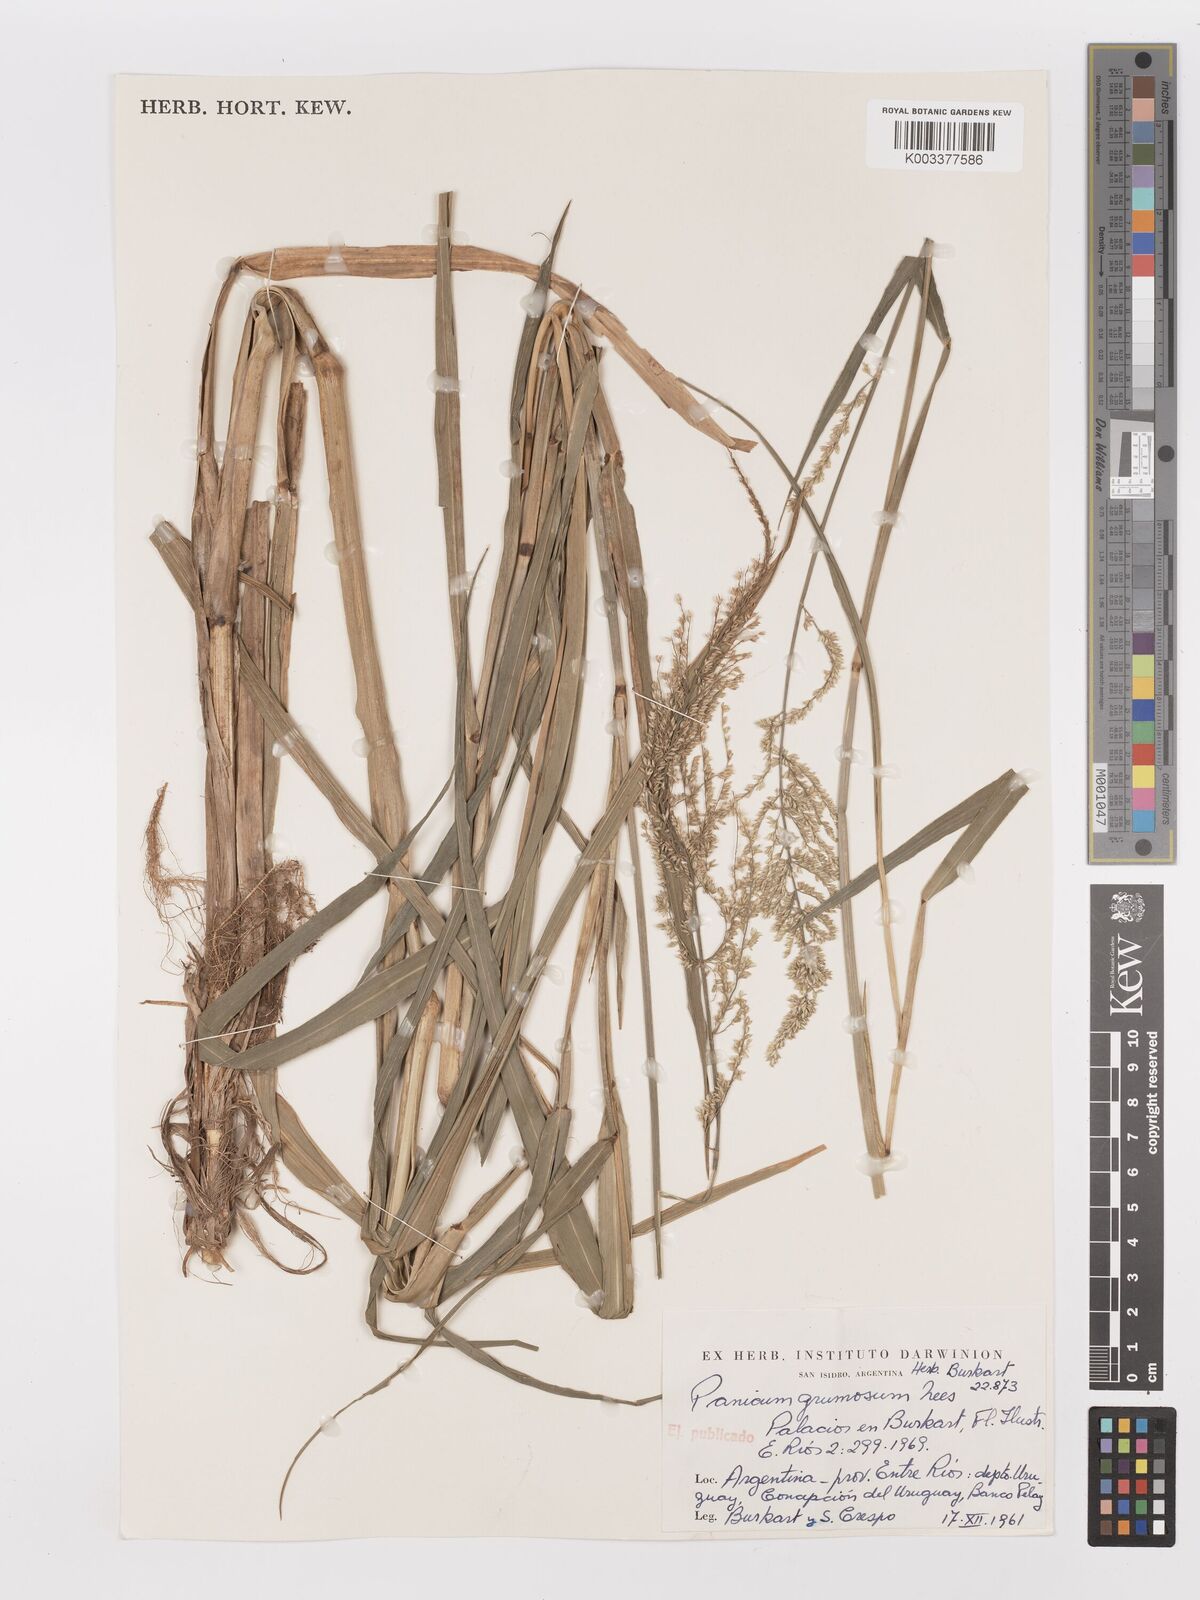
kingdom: Plantae
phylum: Tracheophyta
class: Liliopsida
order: Poales
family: Poaceae
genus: Hymenachne
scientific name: Hymenachne grumosa
